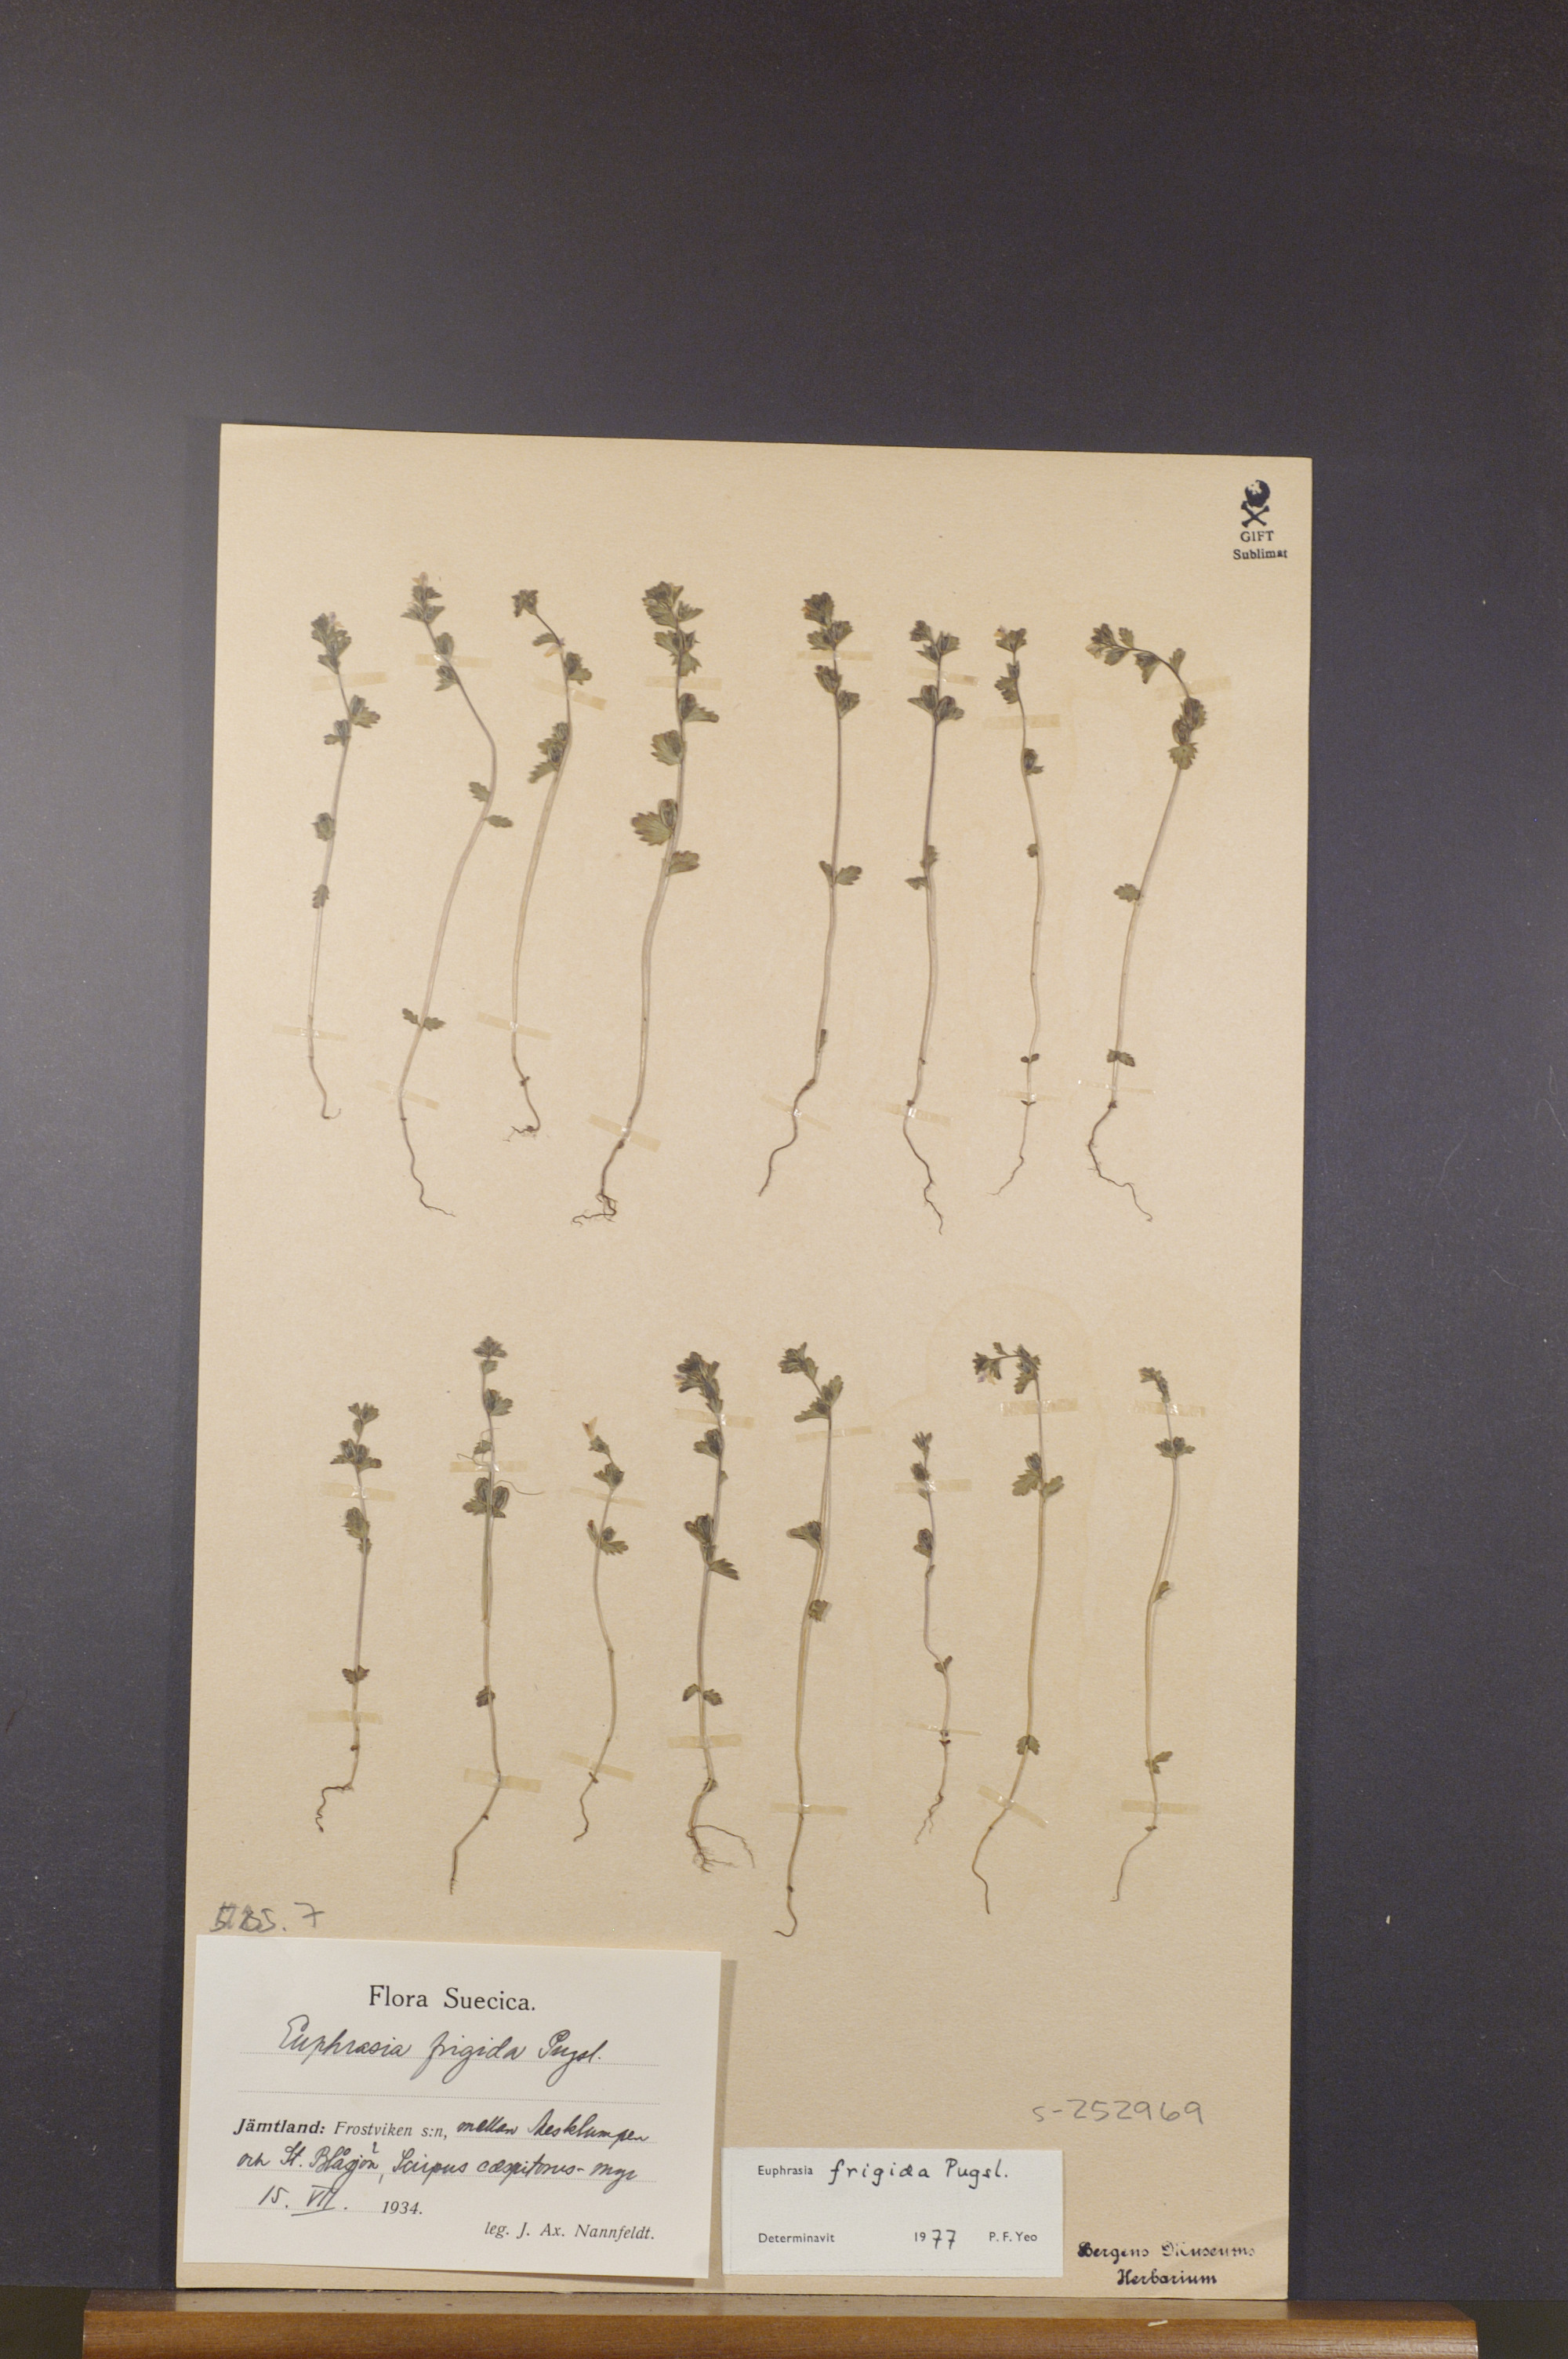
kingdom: Plantae
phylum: Tracheophyta
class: Magnoliopsida
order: Lamiales
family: Orobanchaceae
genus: Euphrasia
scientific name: Euphrasia frigida
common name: An eyebright
